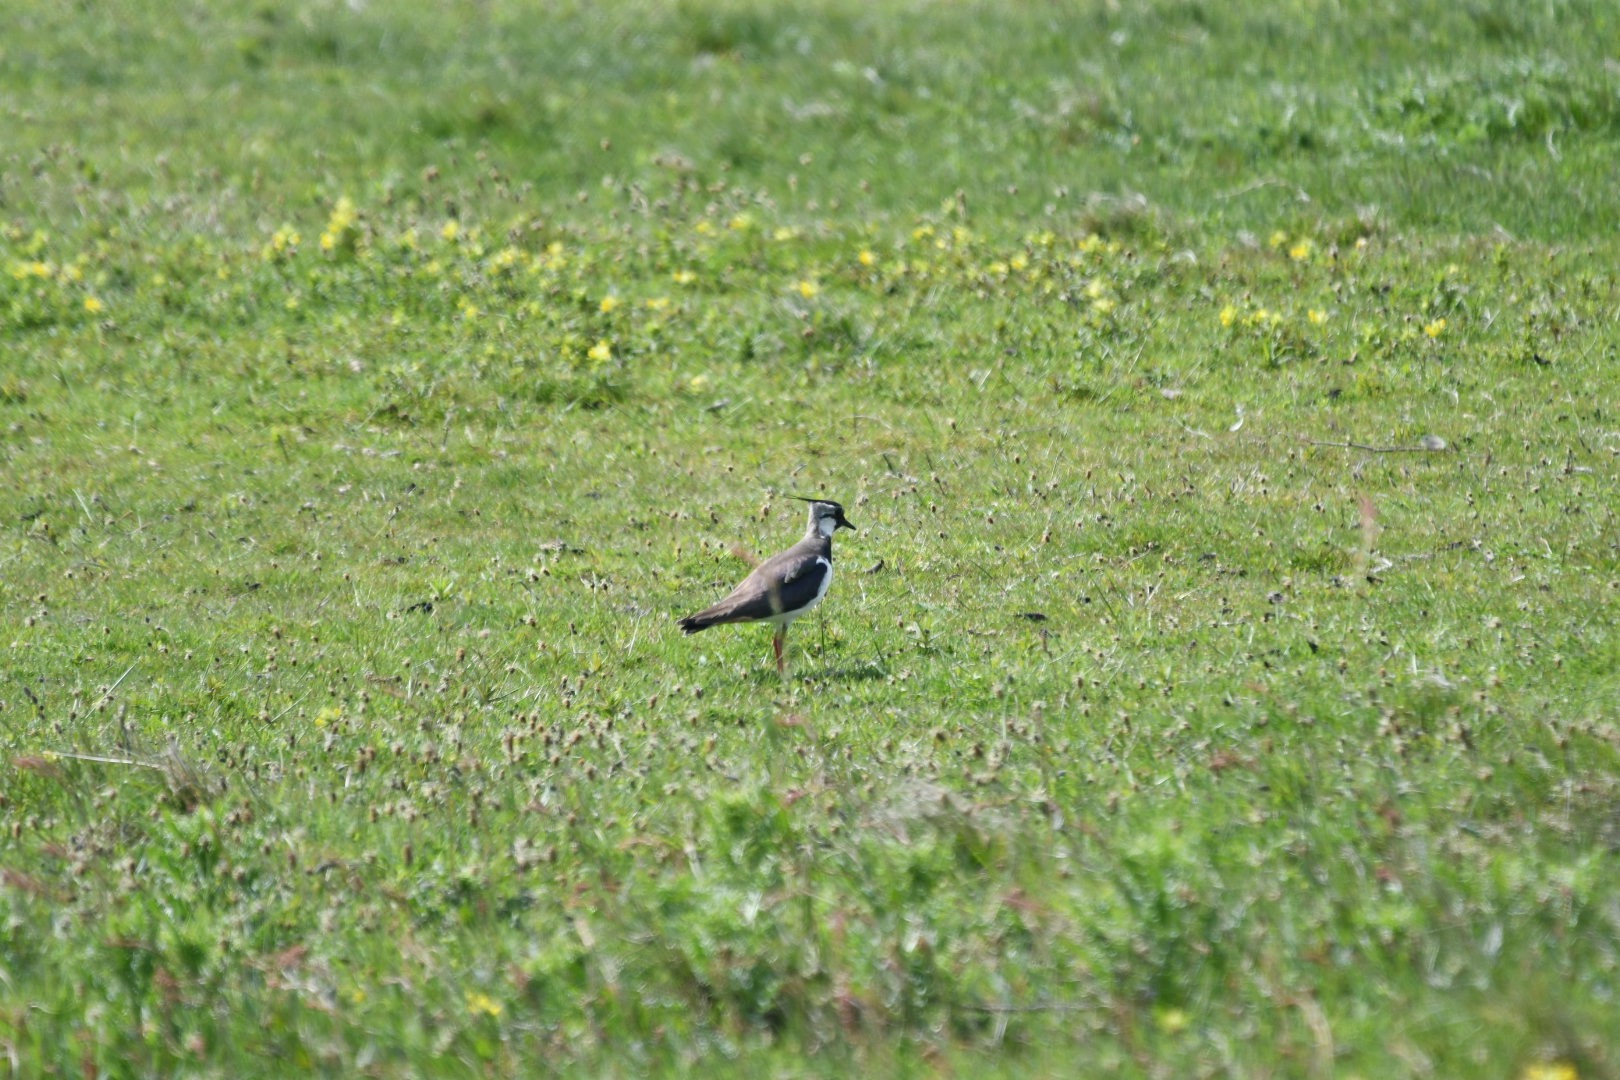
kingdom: Animalia
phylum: Chordata
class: Aves
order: Charadriiformes
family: Charadriidae
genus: Vanellus
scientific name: Vanellus vanellus
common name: Vibe
